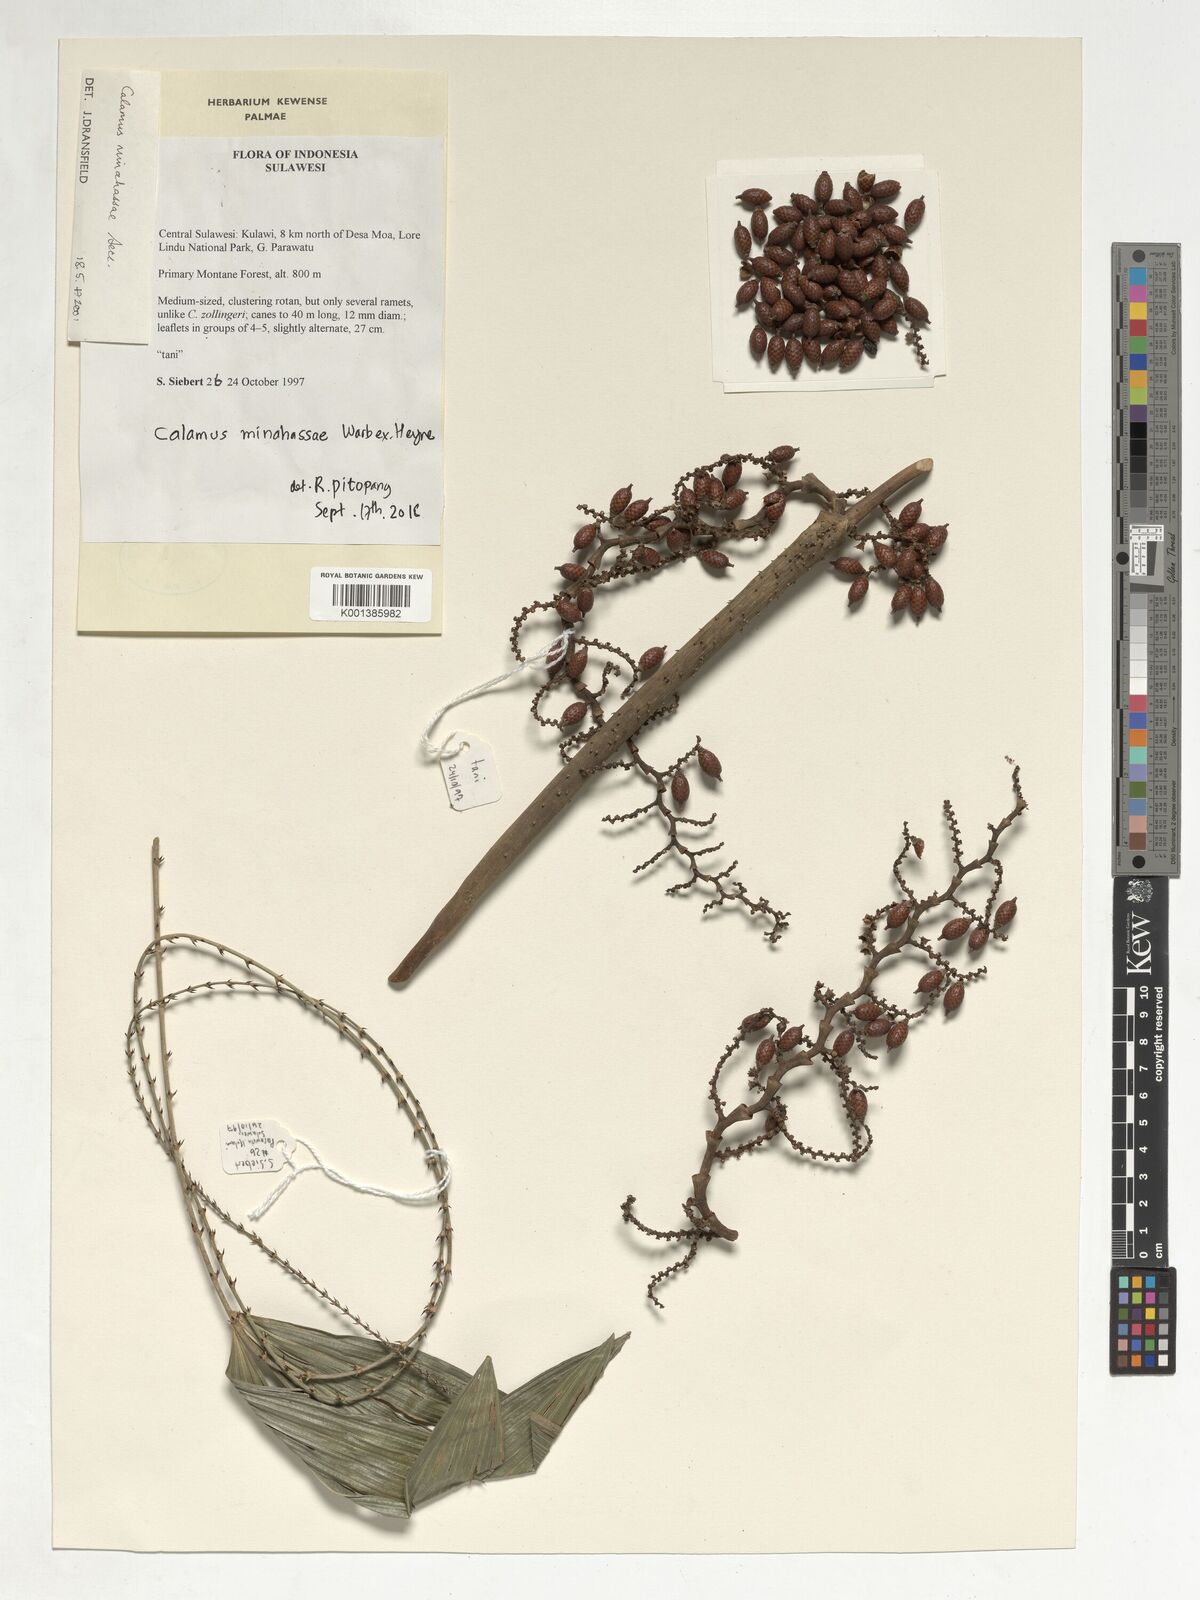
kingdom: Plantae
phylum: Tracheophyta
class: Liliopsida
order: Arecales
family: Arecaceae
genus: Calamus
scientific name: Calamus kandariensis
